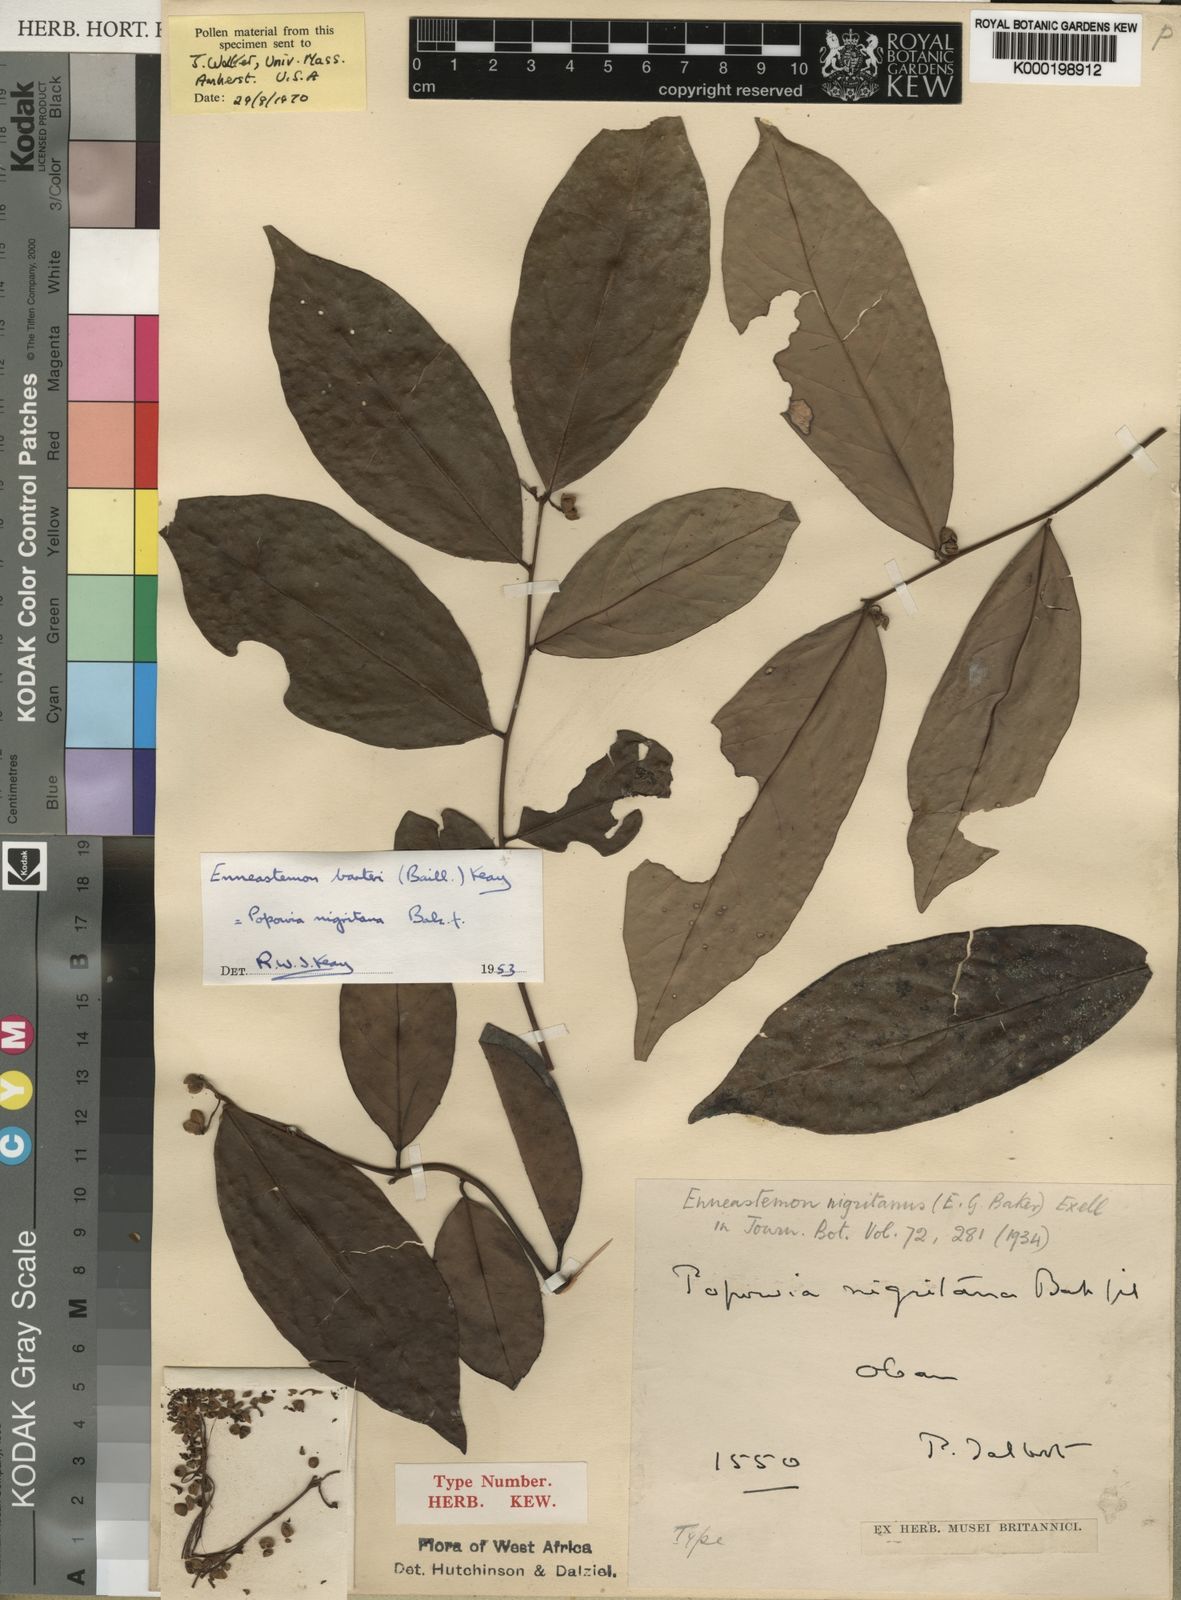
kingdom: Plantae
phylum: Tracheophyta
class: Magnoliopsida
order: Magnoliales
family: Annonaceae
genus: Monanthotaxis
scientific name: Monanthotaxis barteri
